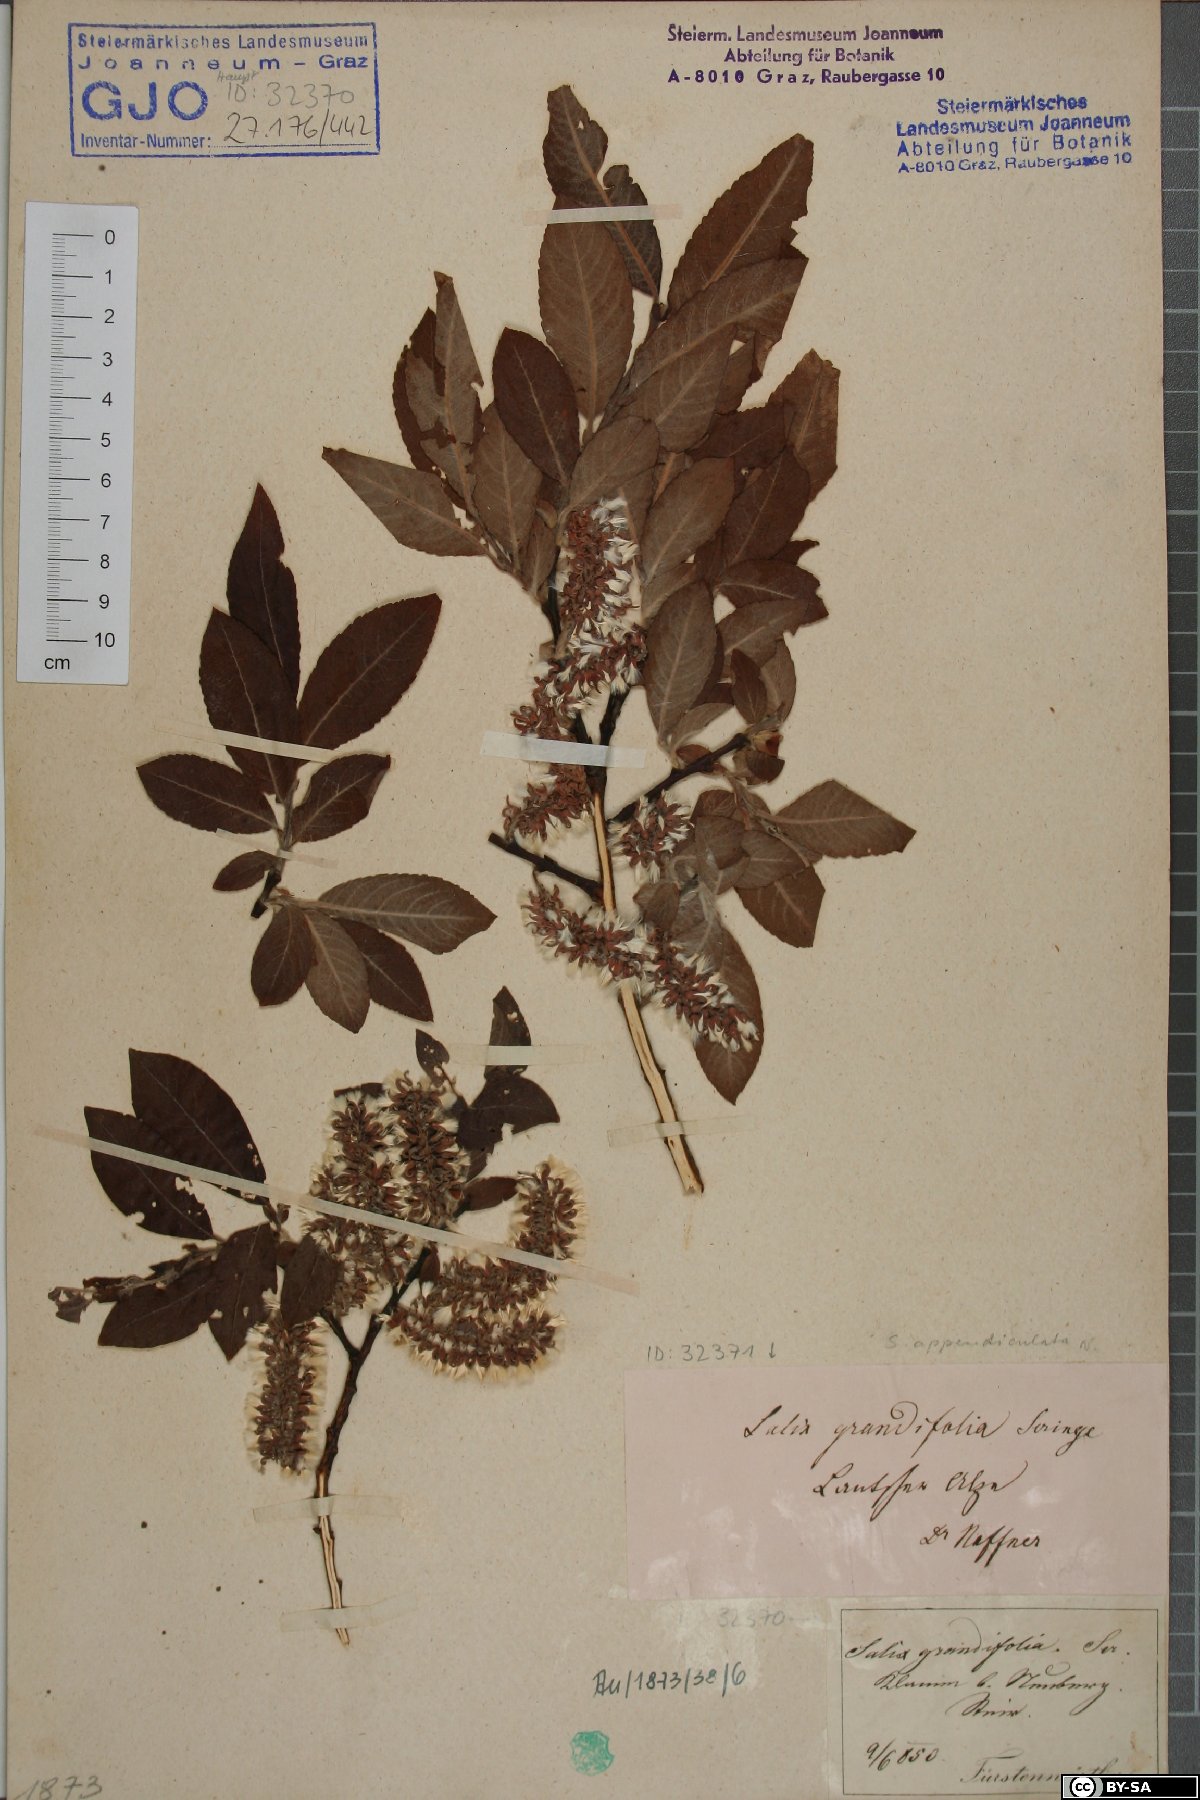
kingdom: Plantae
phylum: Tracheophyta
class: Magnoliopsida
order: Malpighiales
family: Salicaceae
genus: Salix
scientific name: Salix appendiculata
